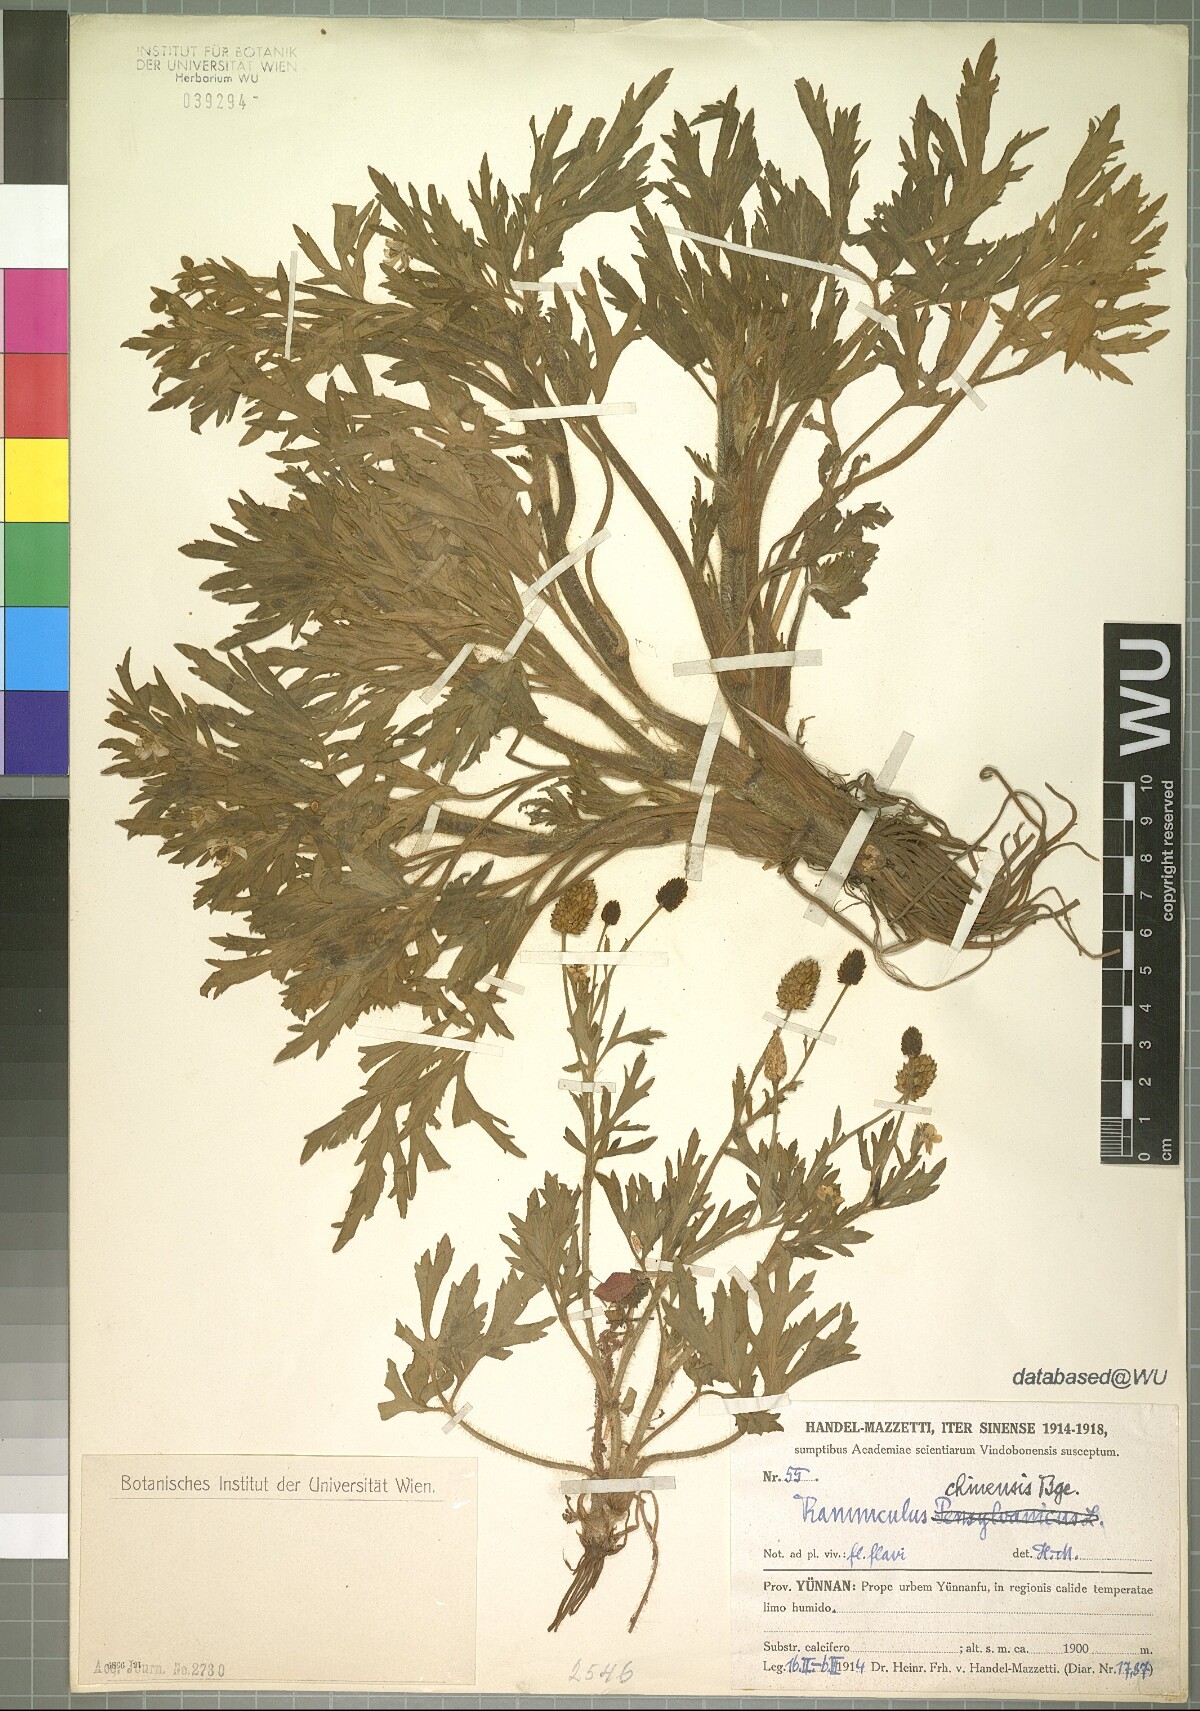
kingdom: Plantae
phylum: Tracheophyta
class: Magnoliopsida
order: Ranunculales
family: Ranunculaceae
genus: Ranunculus
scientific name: Ranunculus chinensis
